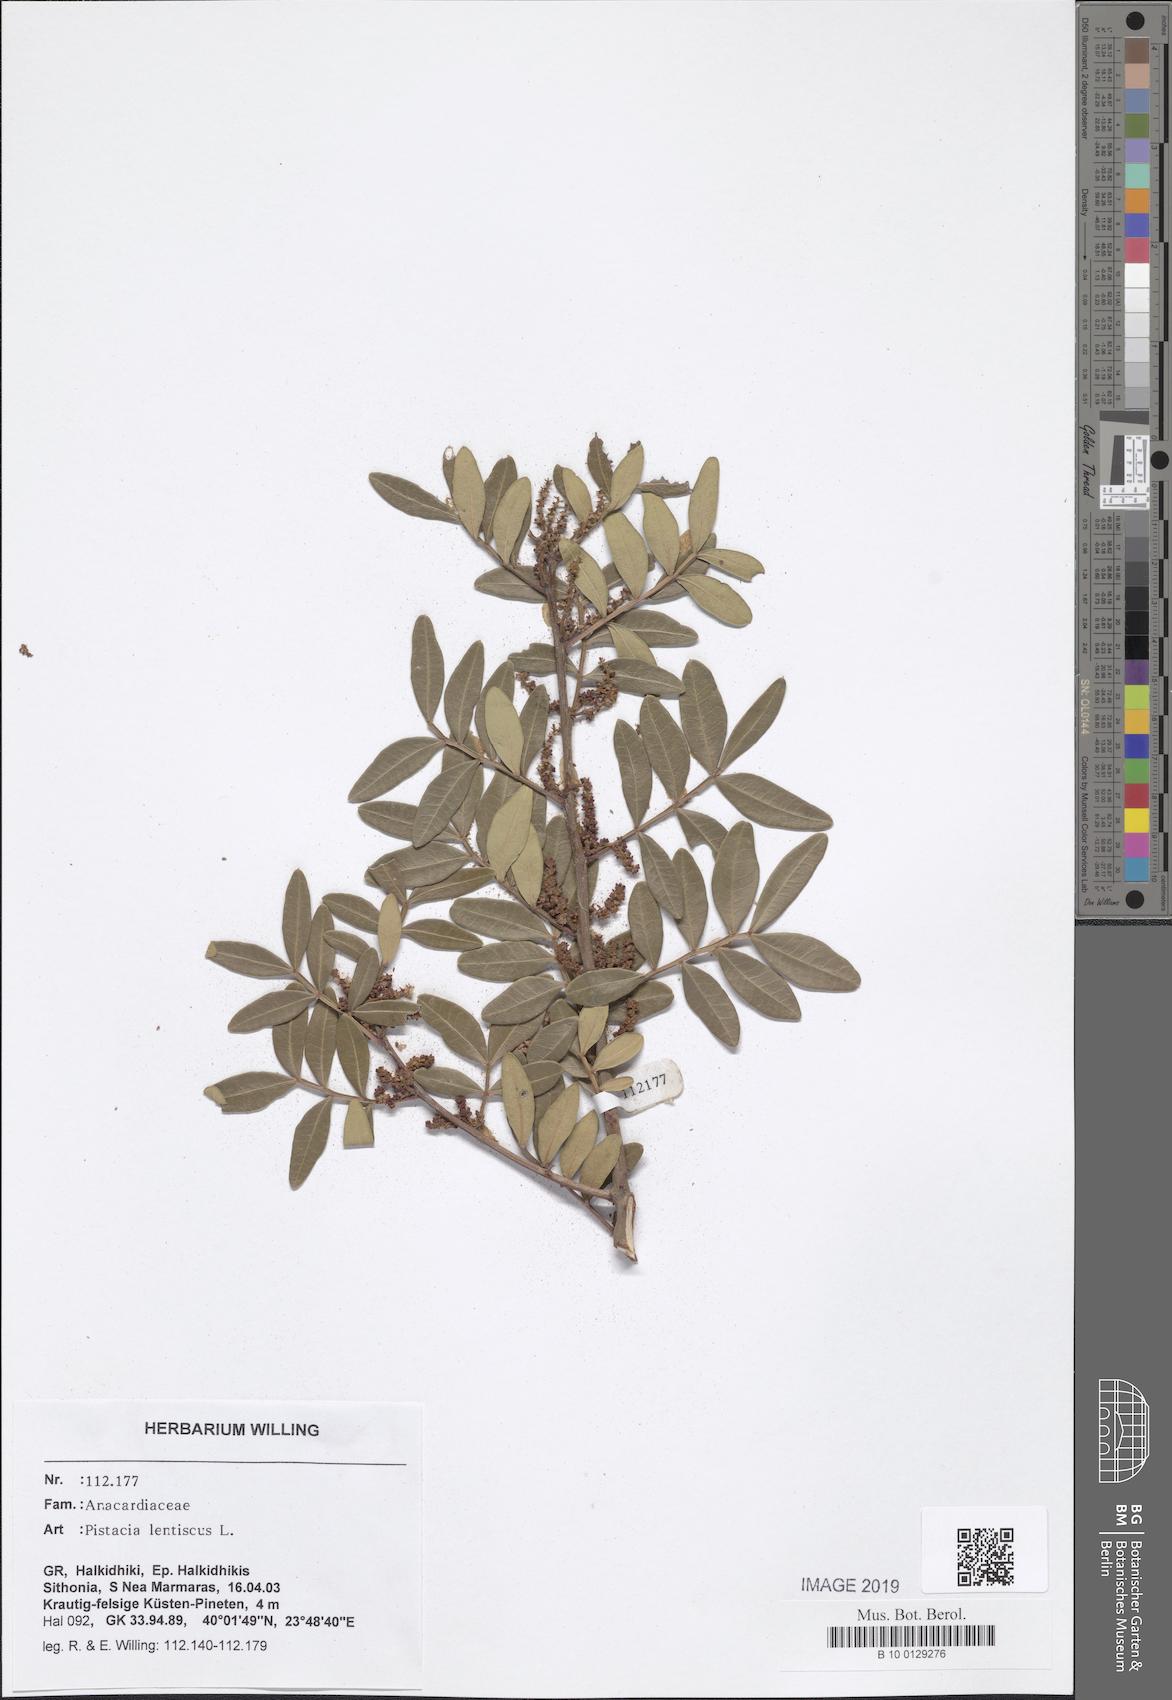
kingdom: Plantae
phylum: Tracheophyta
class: Magnoliopsida
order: Sapindales
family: Anacardiaceae
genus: Pistacia
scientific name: Pistacia lentiscus
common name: Lentisk
